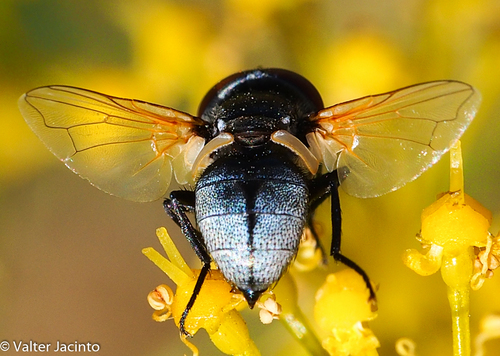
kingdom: Animalia
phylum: Arthropoda
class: Insecta
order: Diptera
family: Tachinidae
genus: Elomya
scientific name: Elomya lateralis
